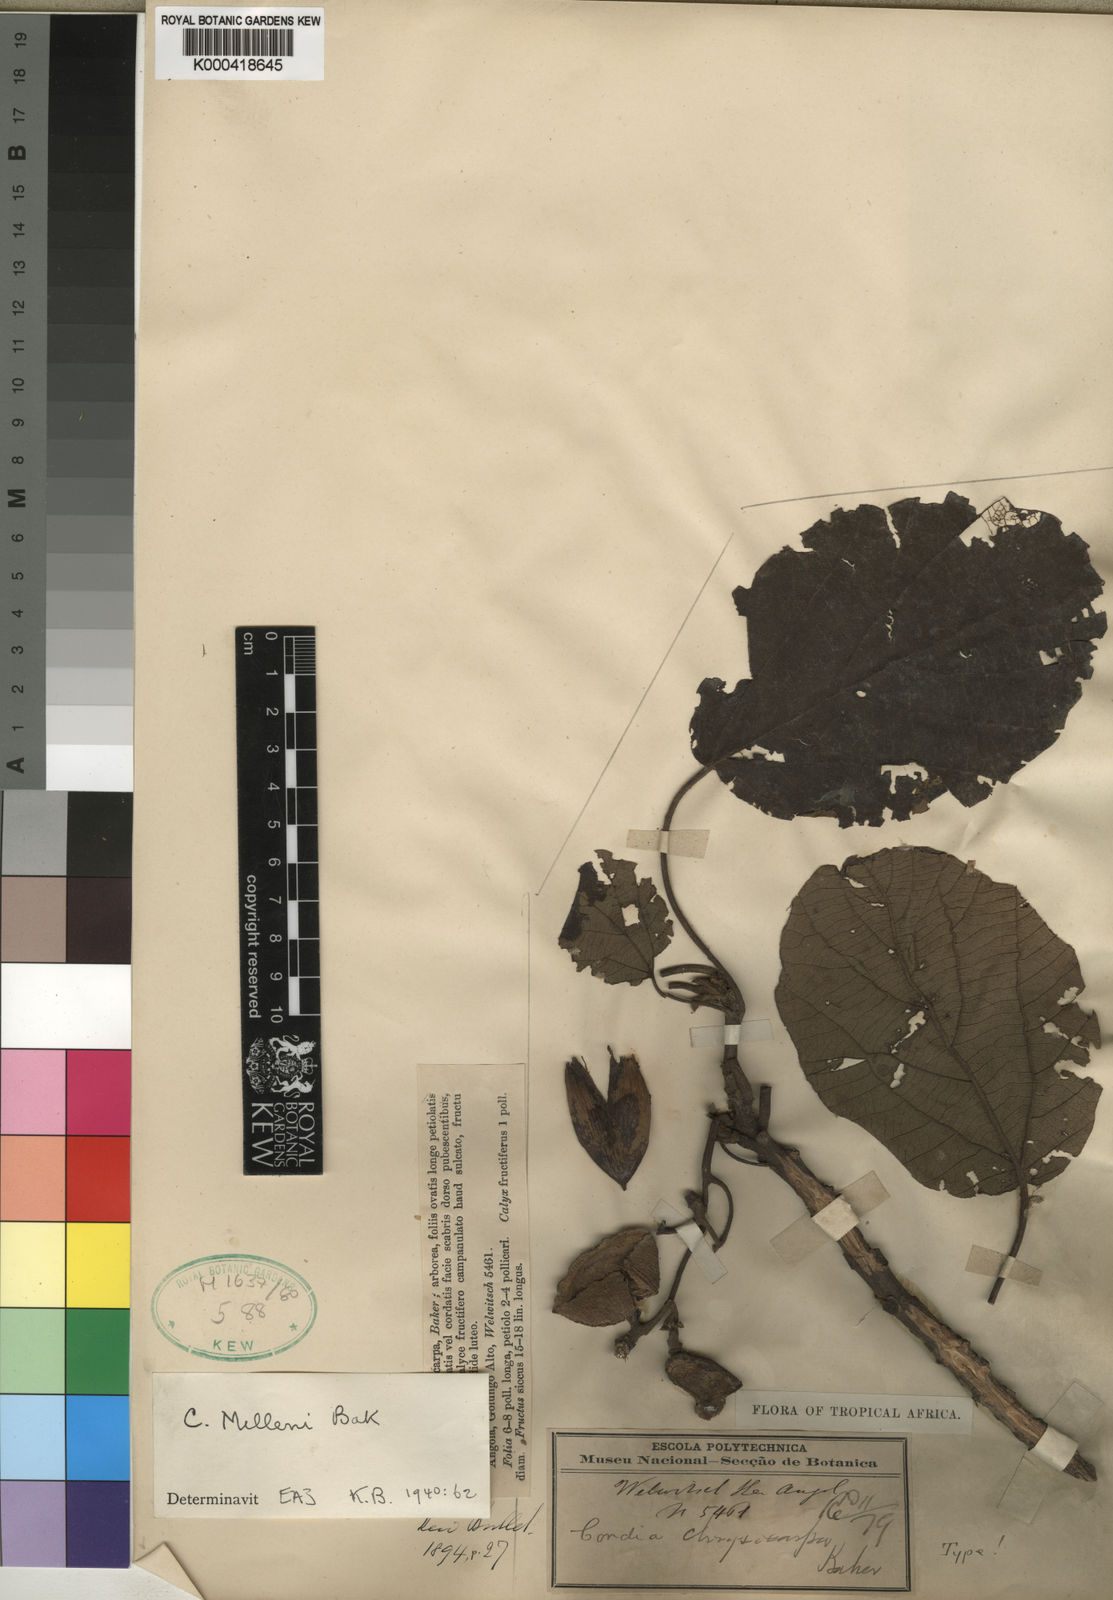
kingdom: Plantae
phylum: Tracheophyta
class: Magnoliopsida
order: Boraginales
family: Cordiaceae
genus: Cordia
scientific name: Cordia millenii
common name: Drum tree
